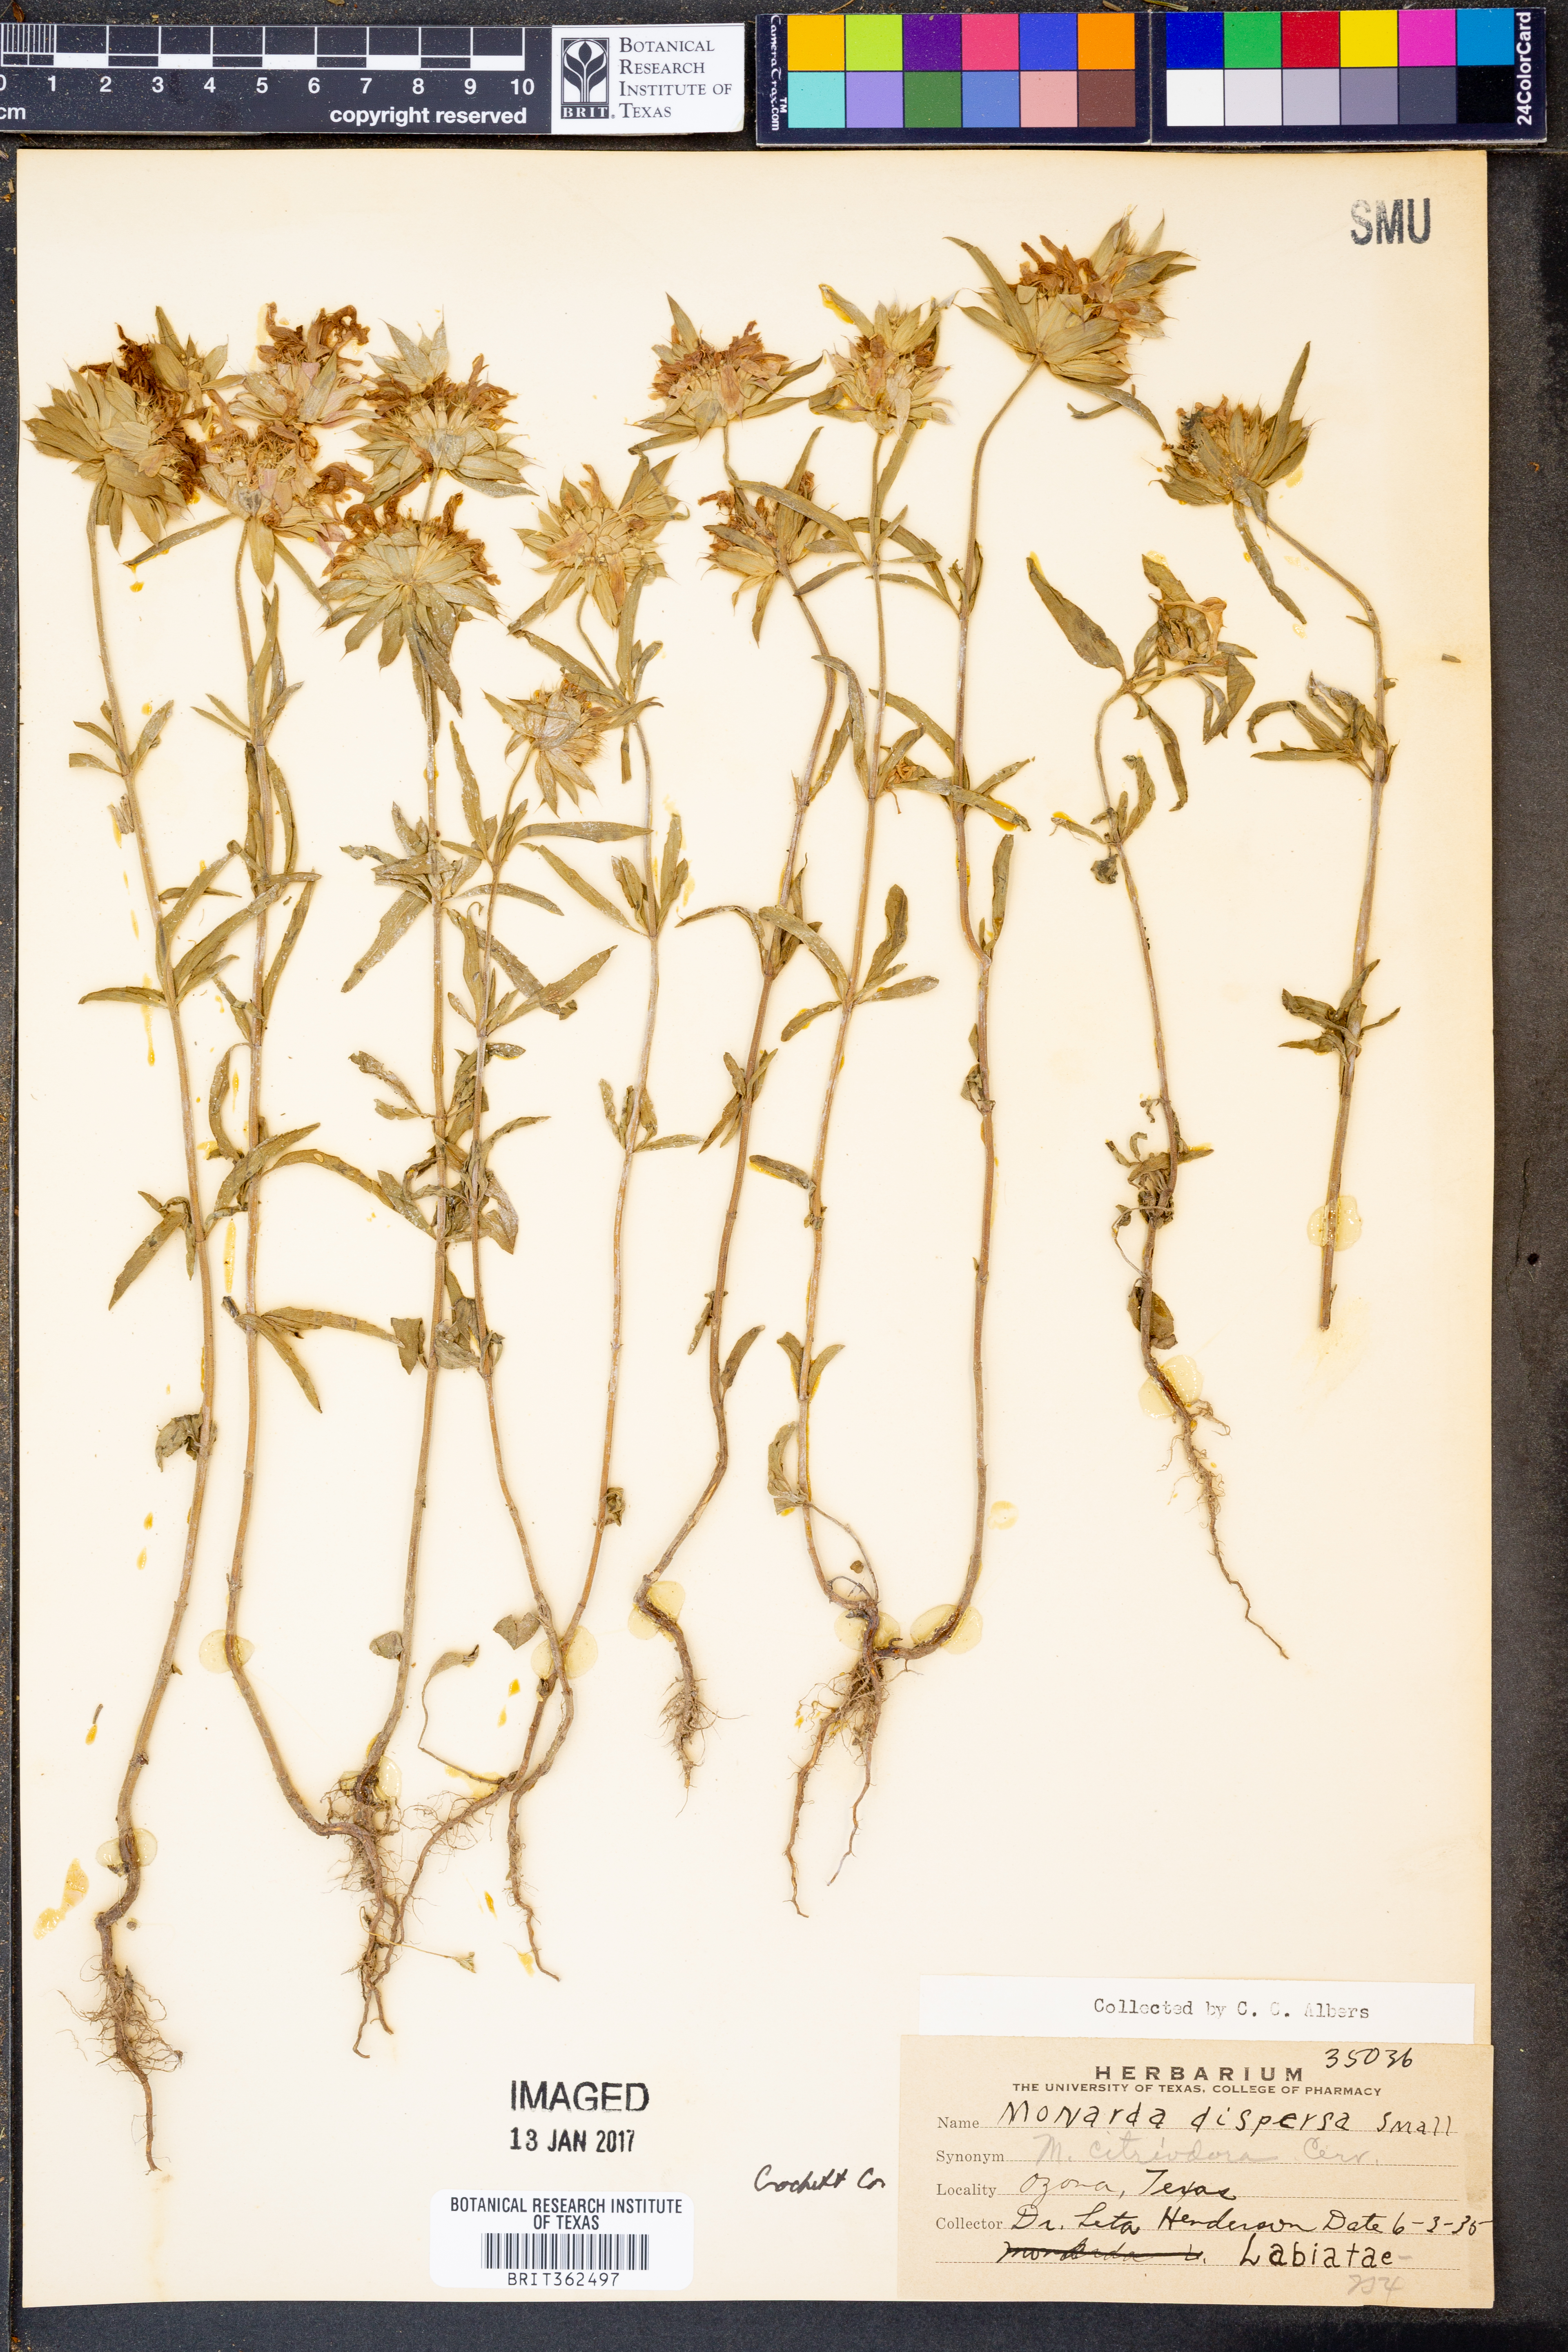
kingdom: Plantae
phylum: Tracheophyta
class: Magnoliopsida
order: Lamiales
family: Lamiaceae
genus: Monarda
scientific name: Monarda citriodora
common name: Lemon beebalm
